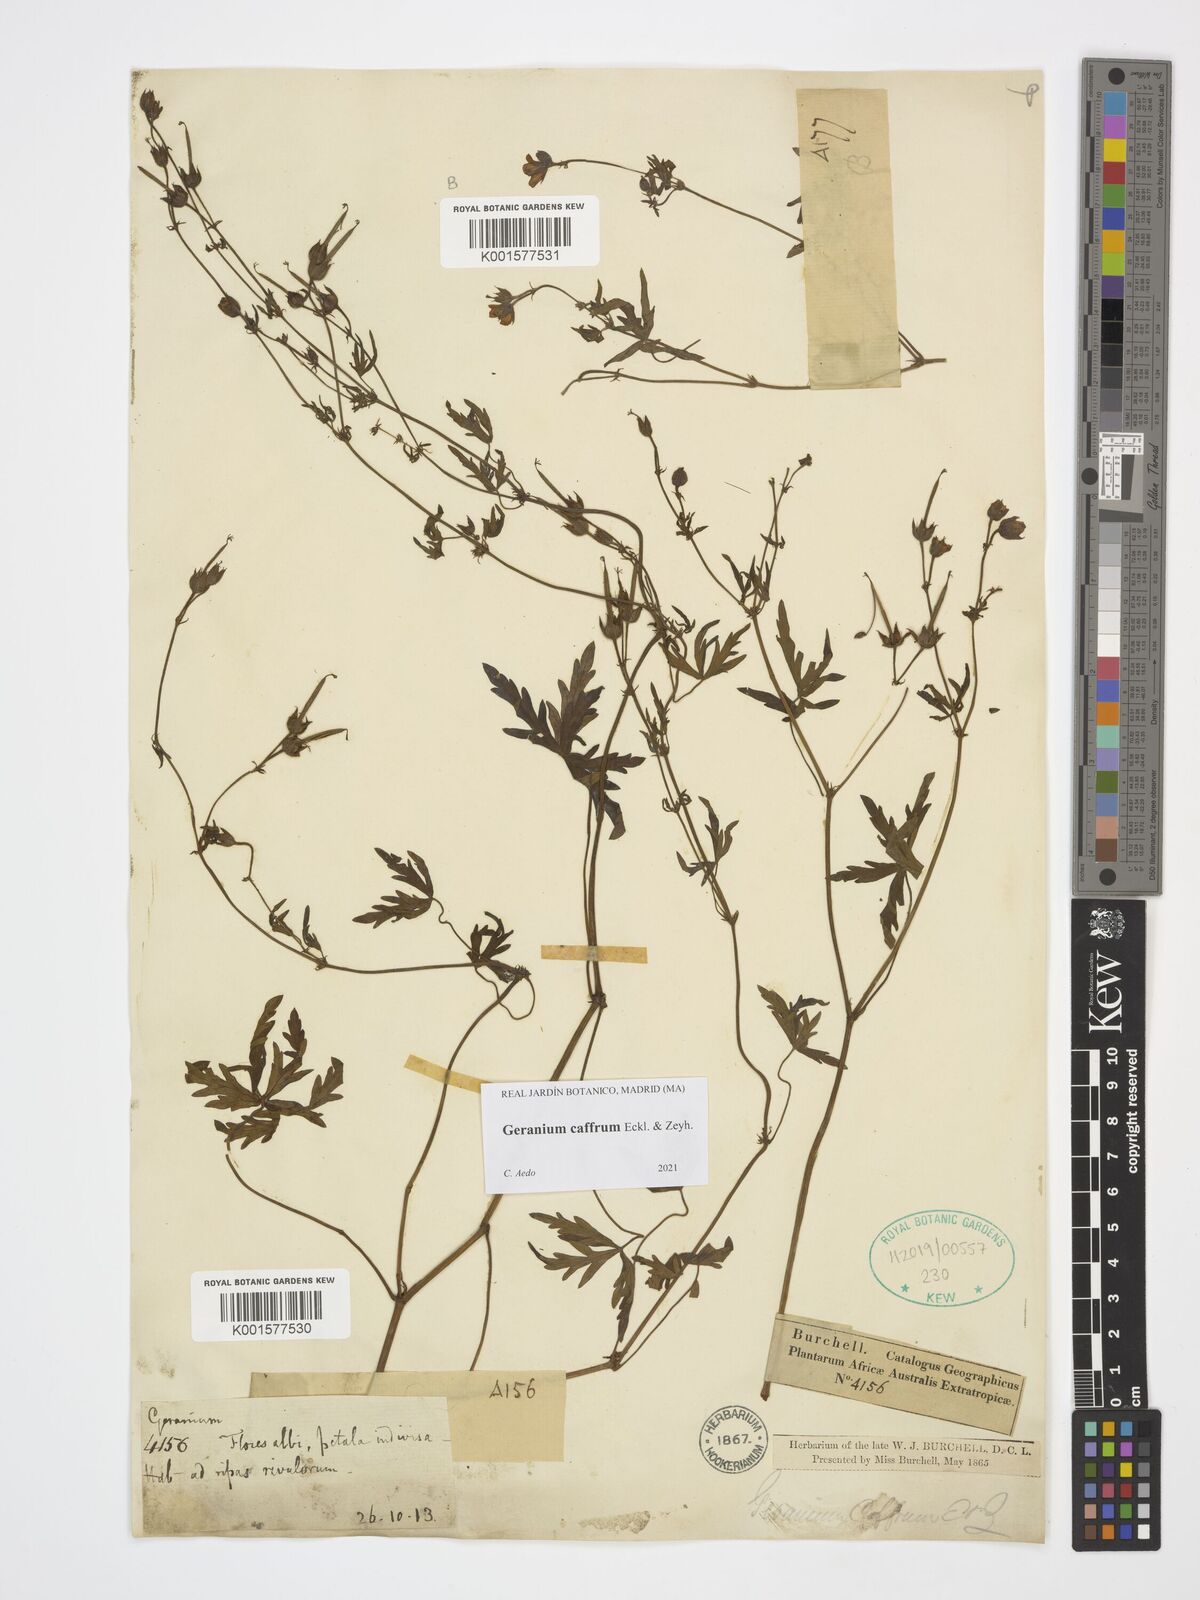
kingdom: Plantae
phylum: Tracheophyta
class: Magnoliopsida
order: Geraniales
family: Geraniaceae
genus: Geranium
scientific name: Geranium caffrum
